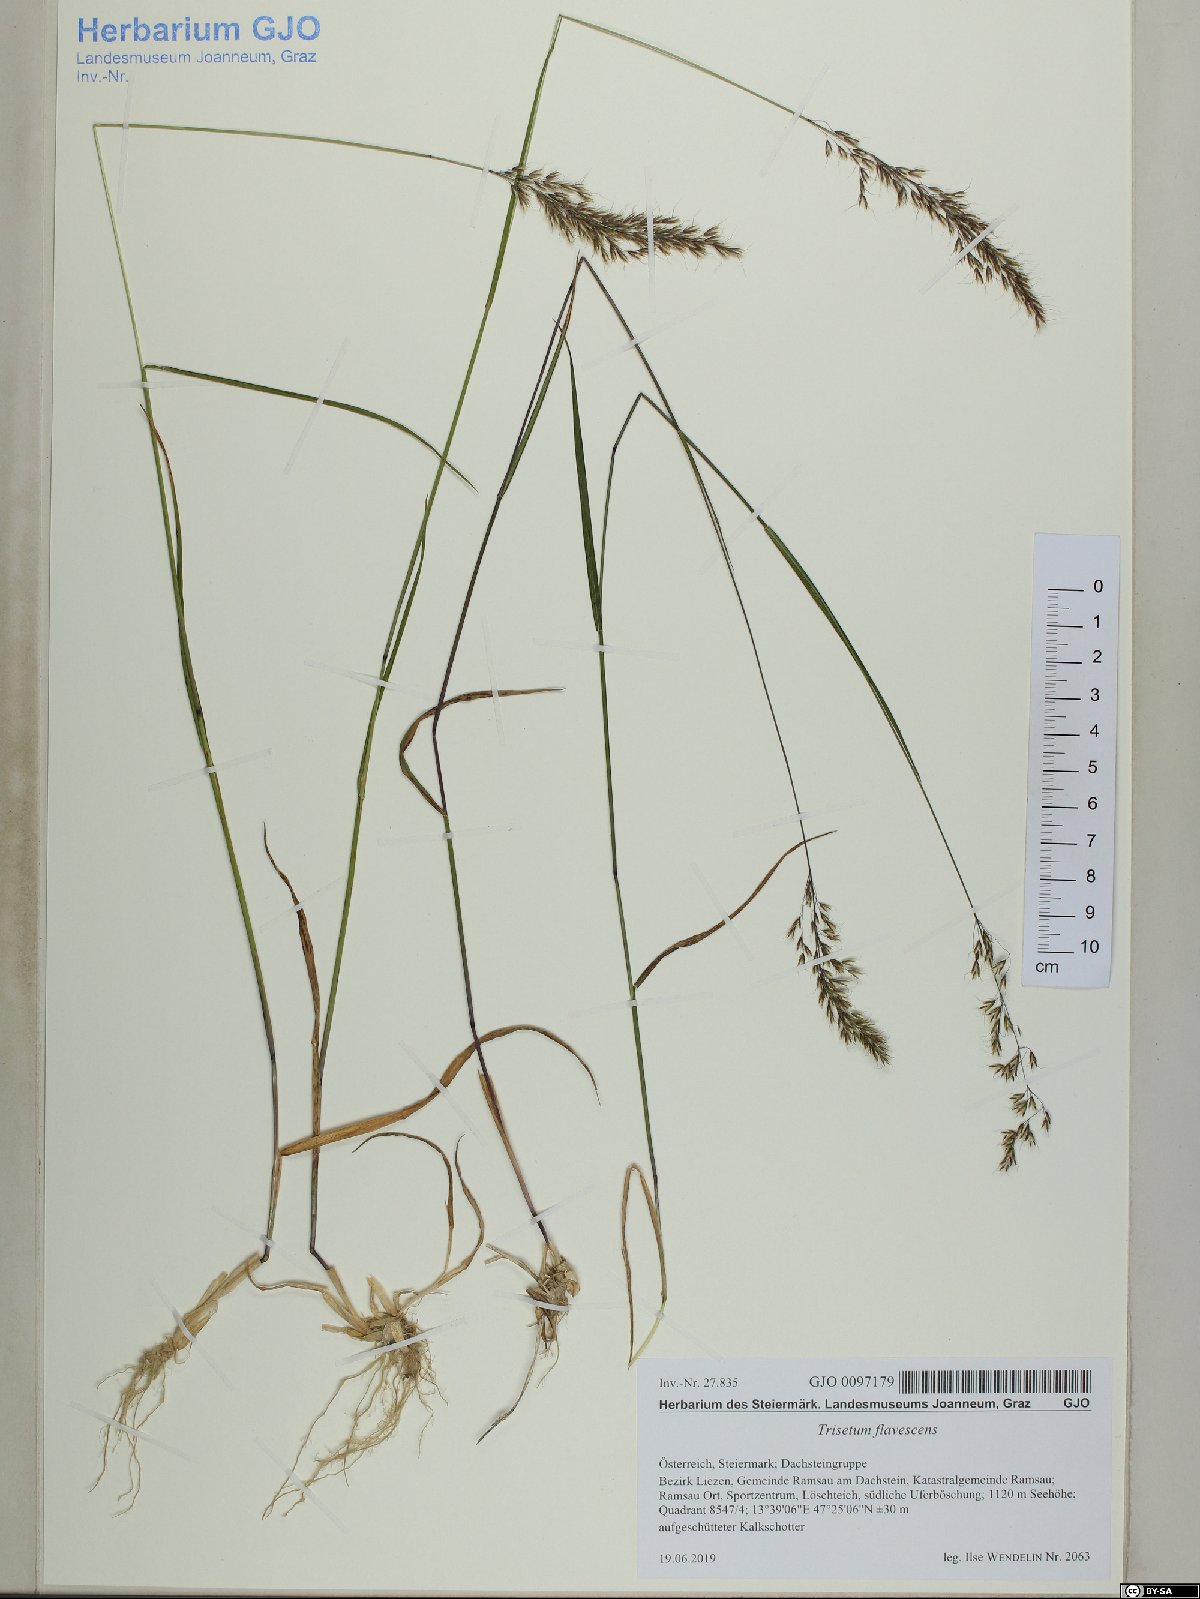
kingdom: Plantae
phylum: Tracheophyta
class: Liliopsida
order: Poales
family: Poaceae
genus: Trisetum
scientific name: Trisetum flavescens
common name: Yellow oat-grass
